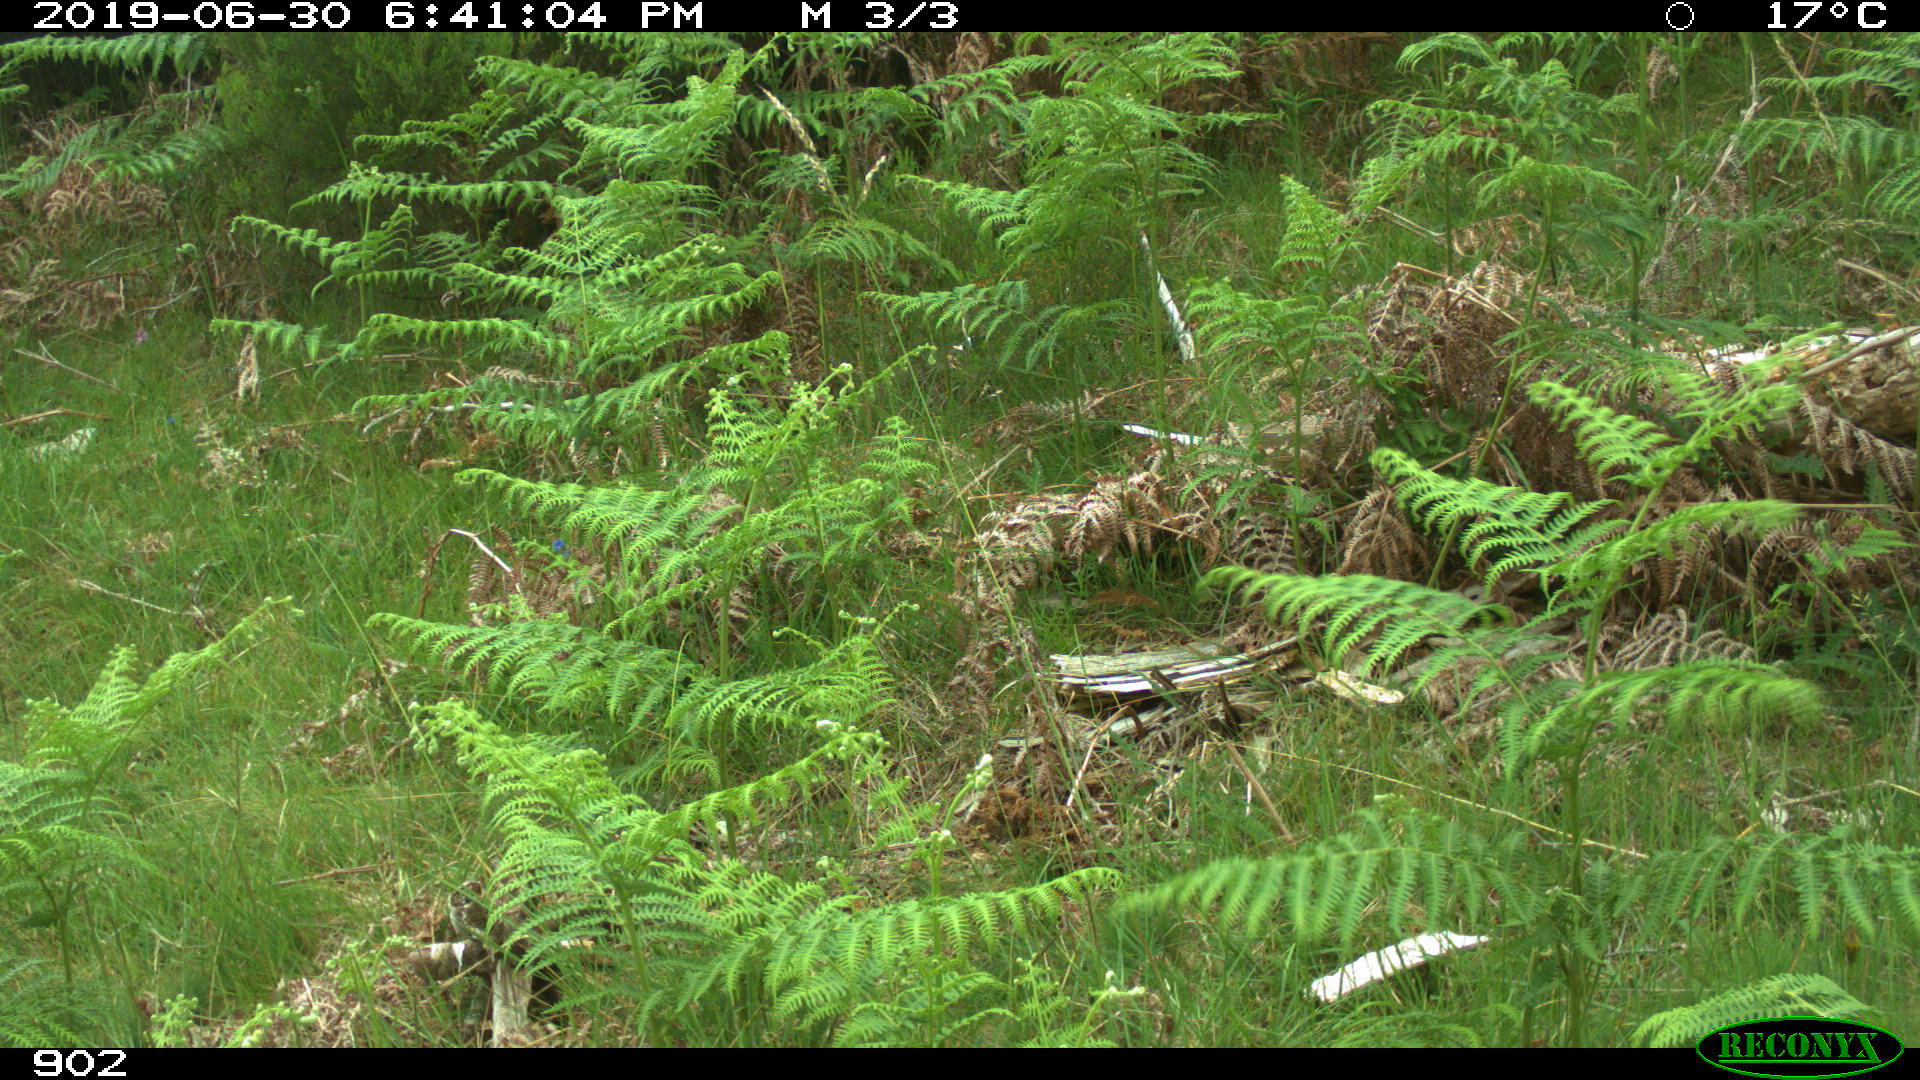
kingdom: Animalia
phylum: Chordata
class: Mammalia
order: Artiodactyla
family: Cervidae
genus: Capreolus
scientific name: Capreolus capreolus
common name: Western roe deer
